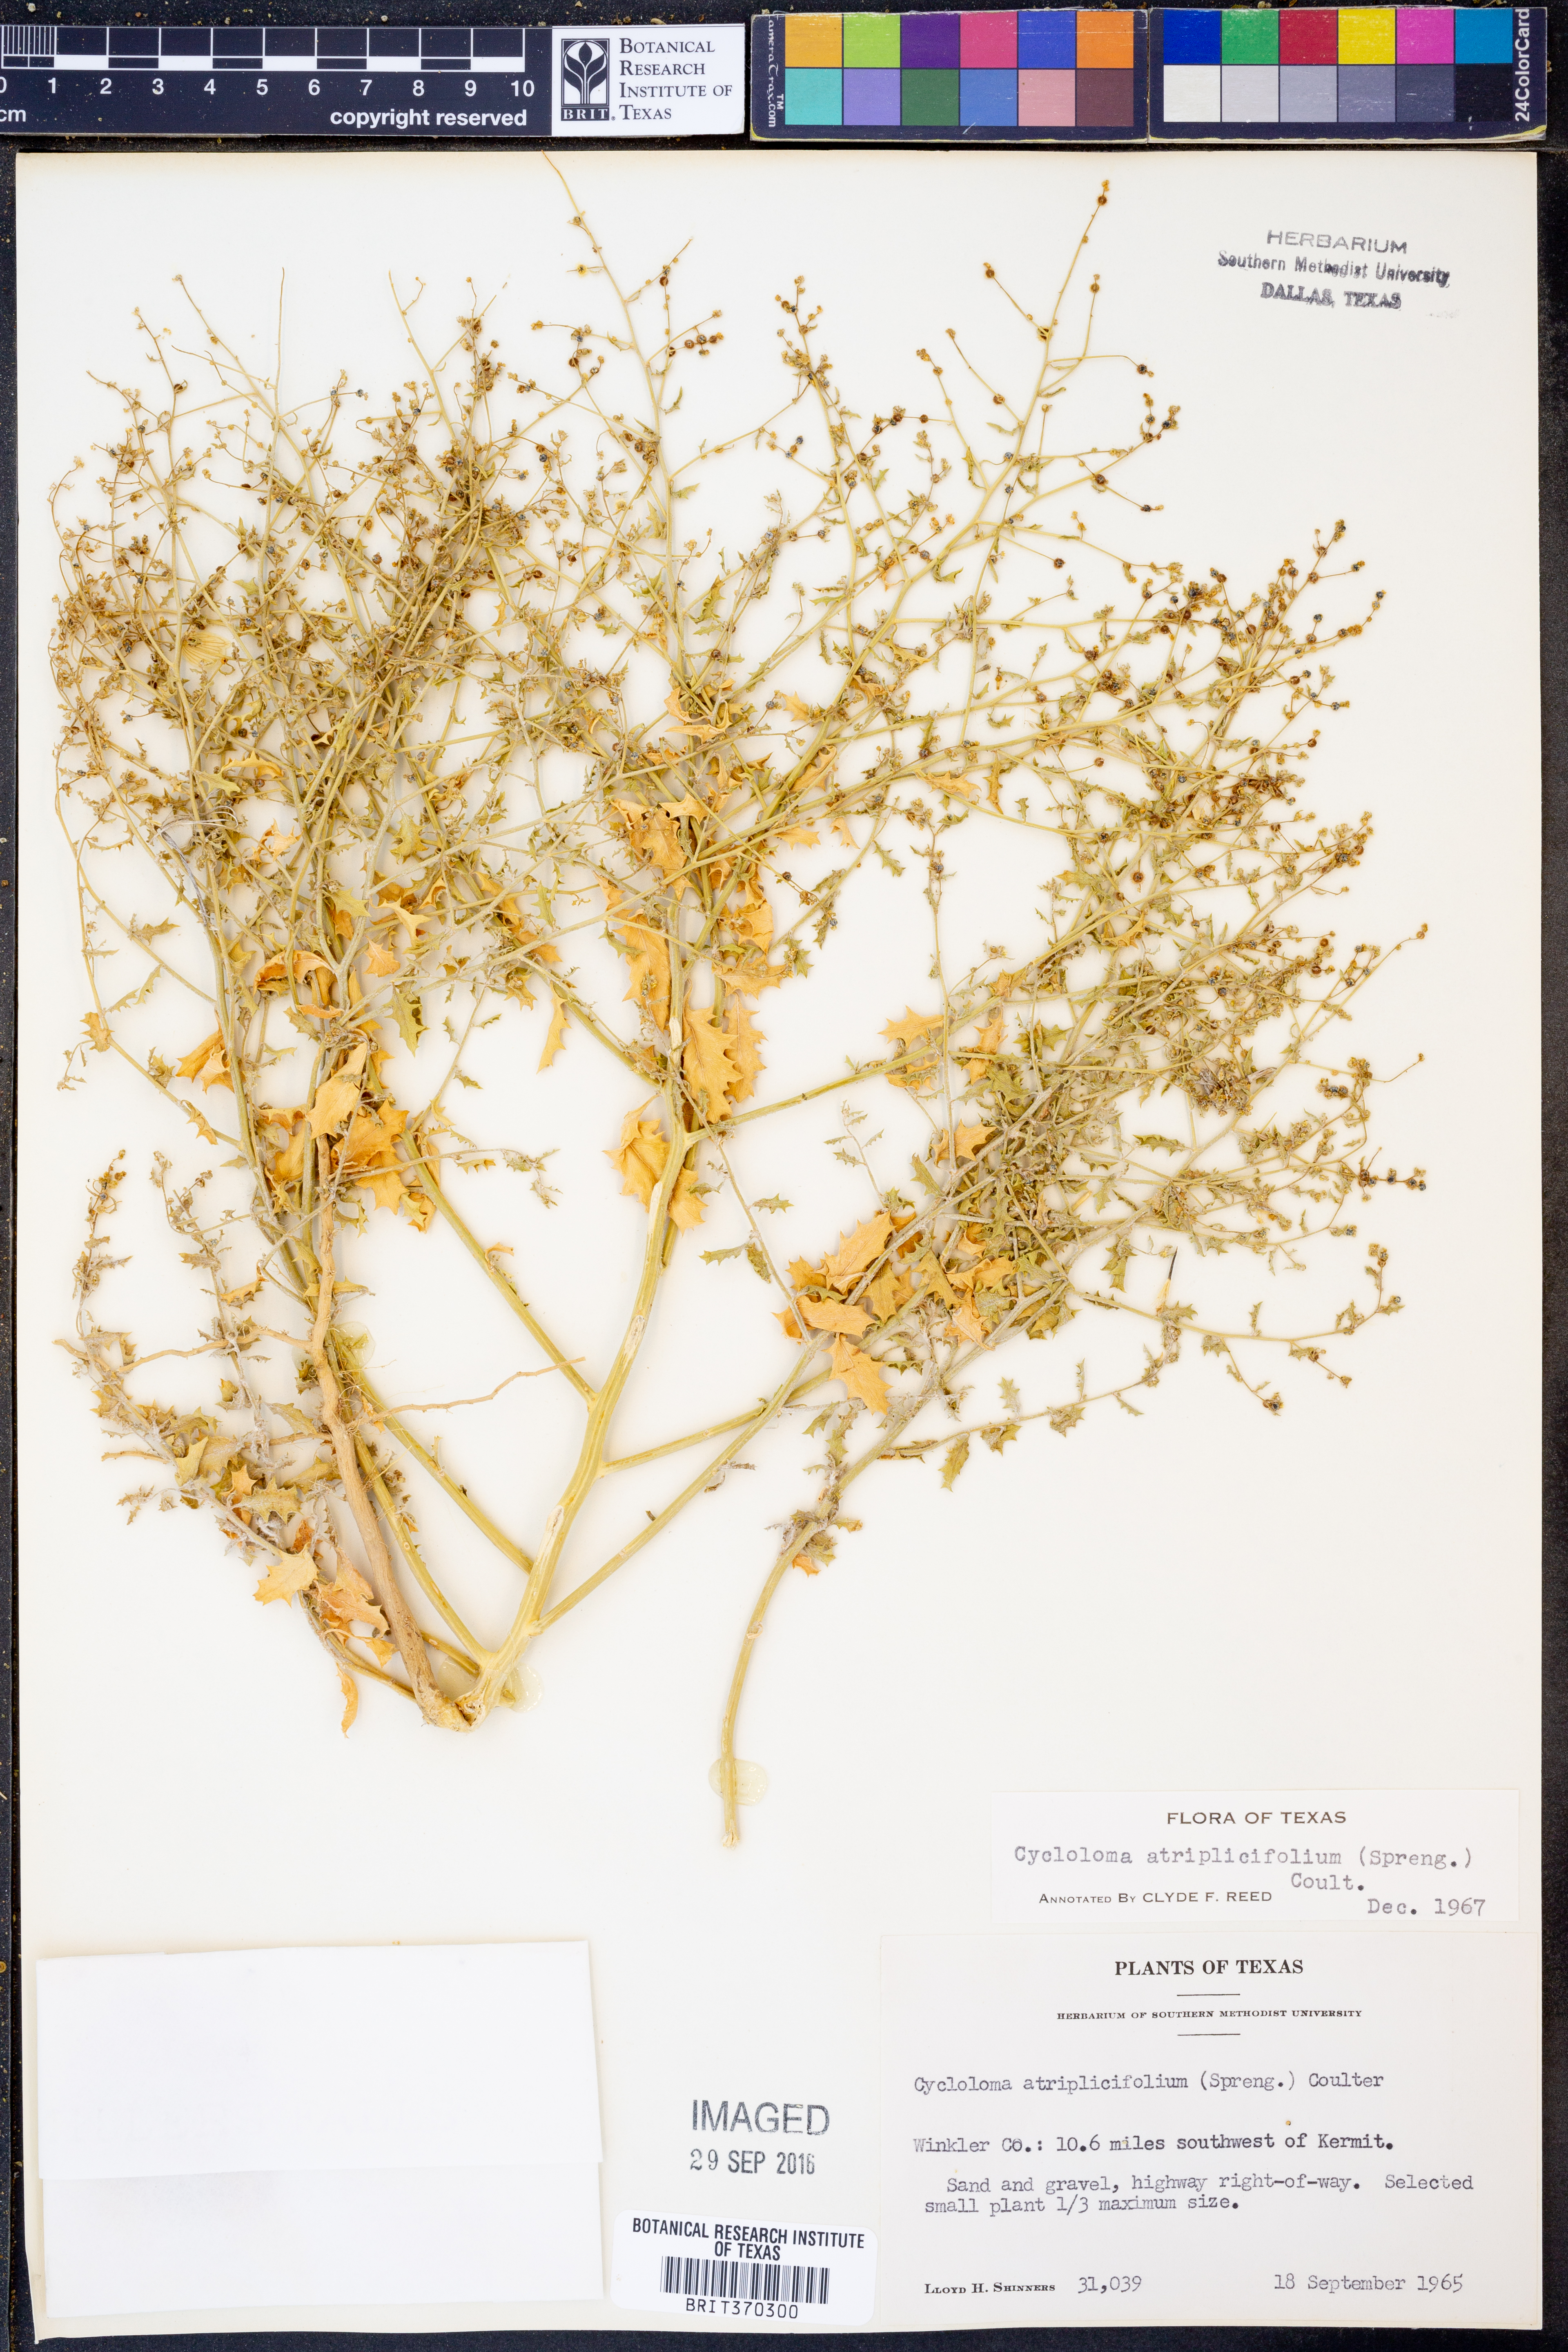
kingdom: Plantae
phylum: Tracheophyta
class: Magnoliopsida
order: Caryophyllales
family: Amaranthaceae
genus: Dysphania
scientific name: Dysphania atriplicifolia
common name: Plains tumbleweed
